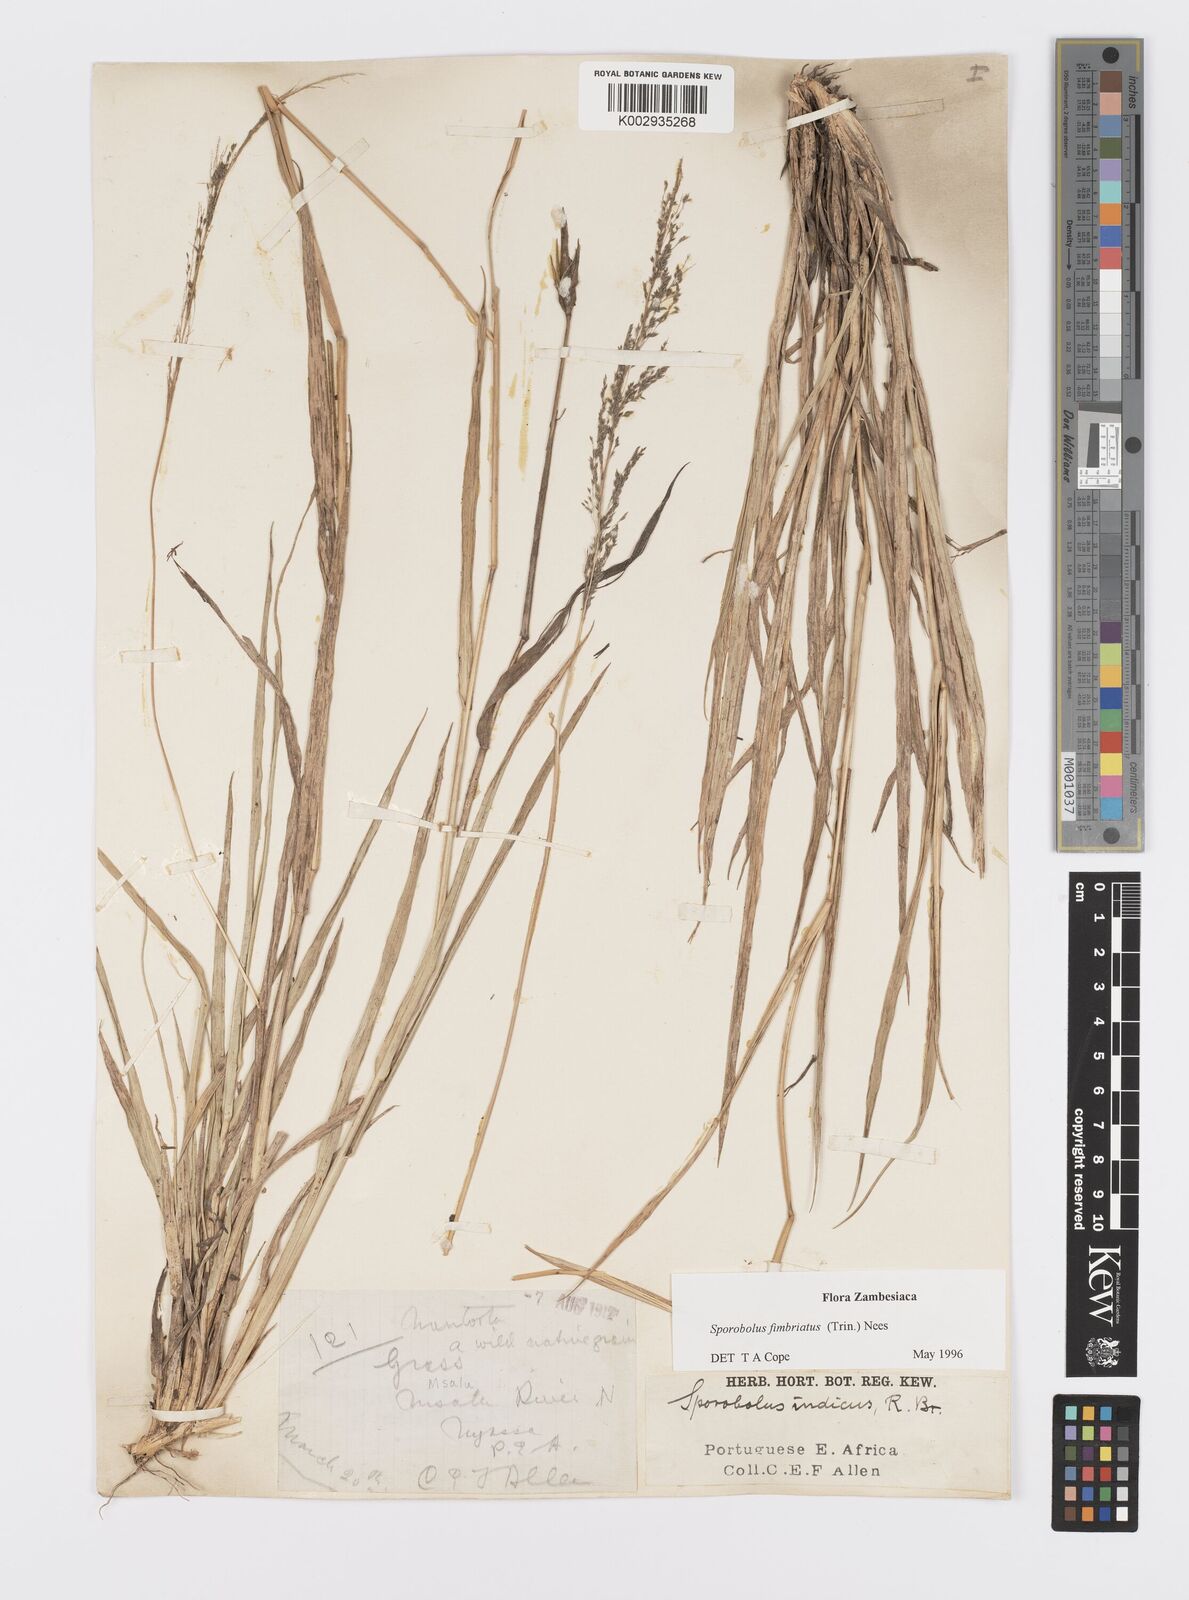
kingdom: Plantae
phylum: Tracheophyta
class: Liliopsida
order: Poales
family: Poaceae
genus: Sporobolus
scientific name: Sporobolus fimbriatus
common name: Fringed dropseed
